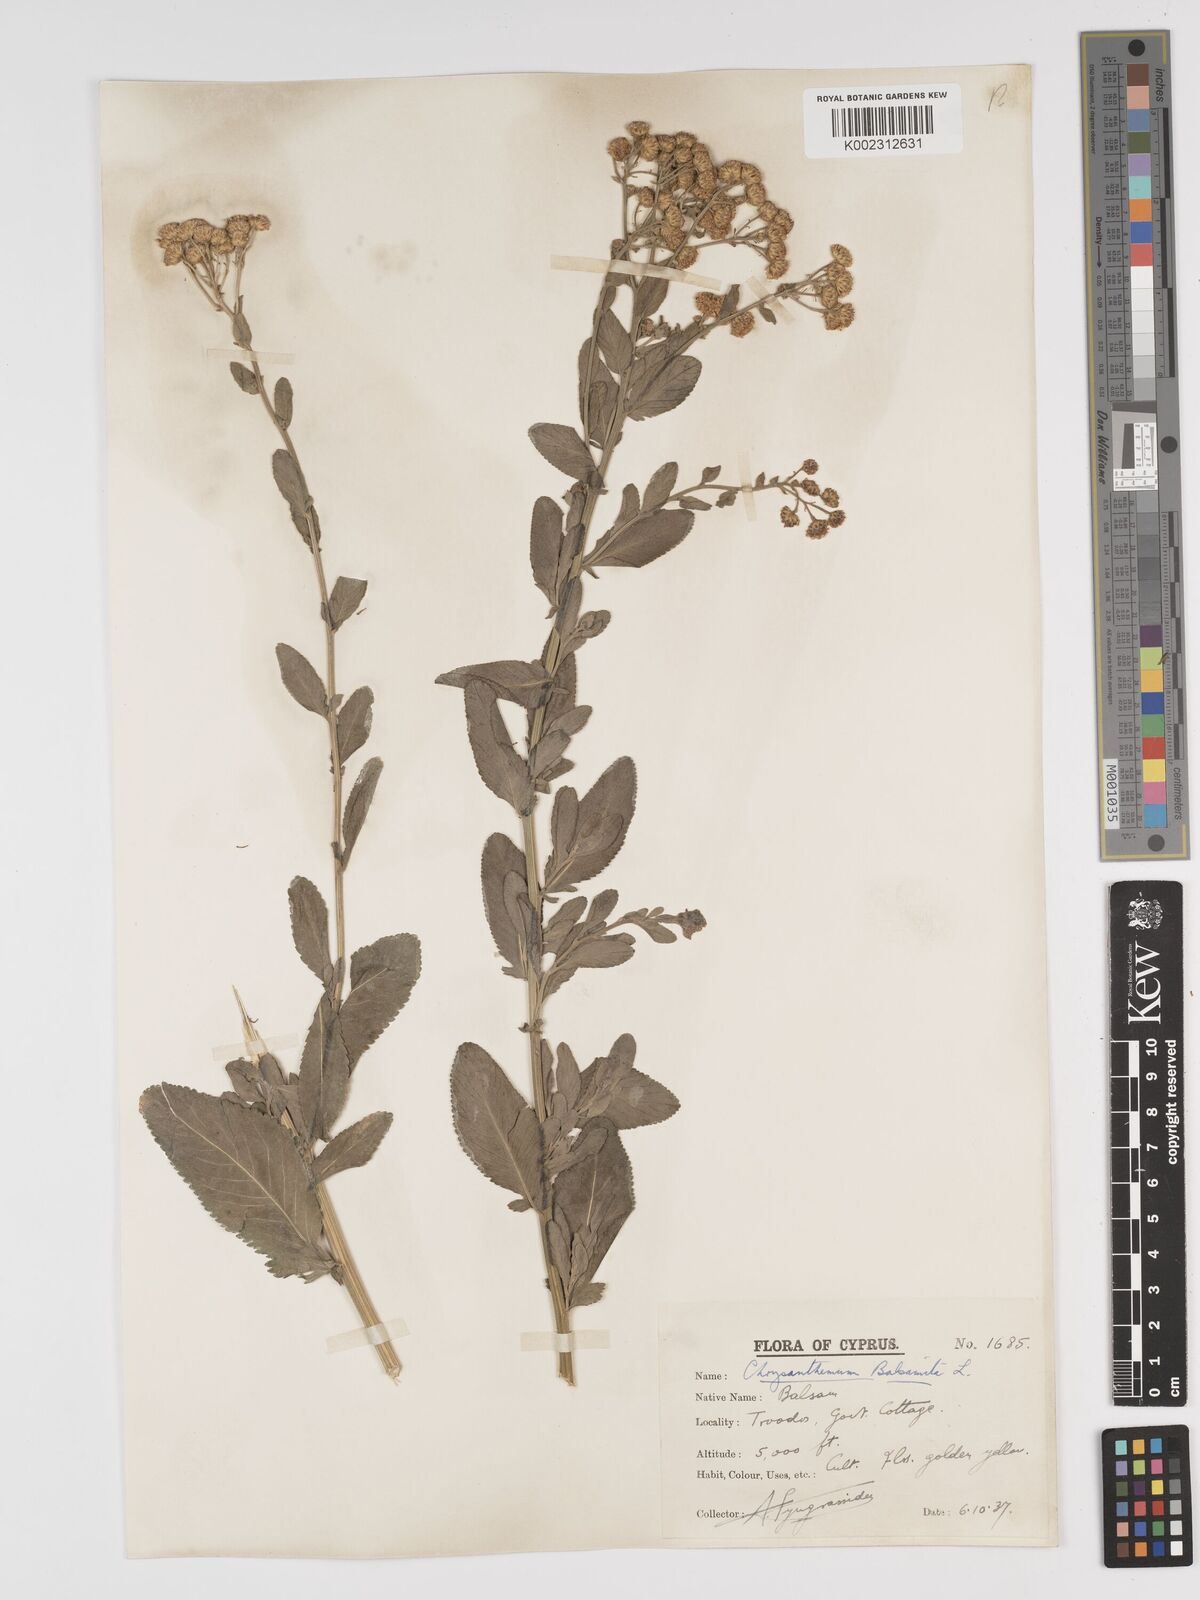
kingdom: Plantae
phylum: Tracheophyta
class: Magnoliopsida
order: Asterales
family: Asteraceae
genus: Tanacetum
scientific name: Tanacetum balsamita
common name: Costmary
